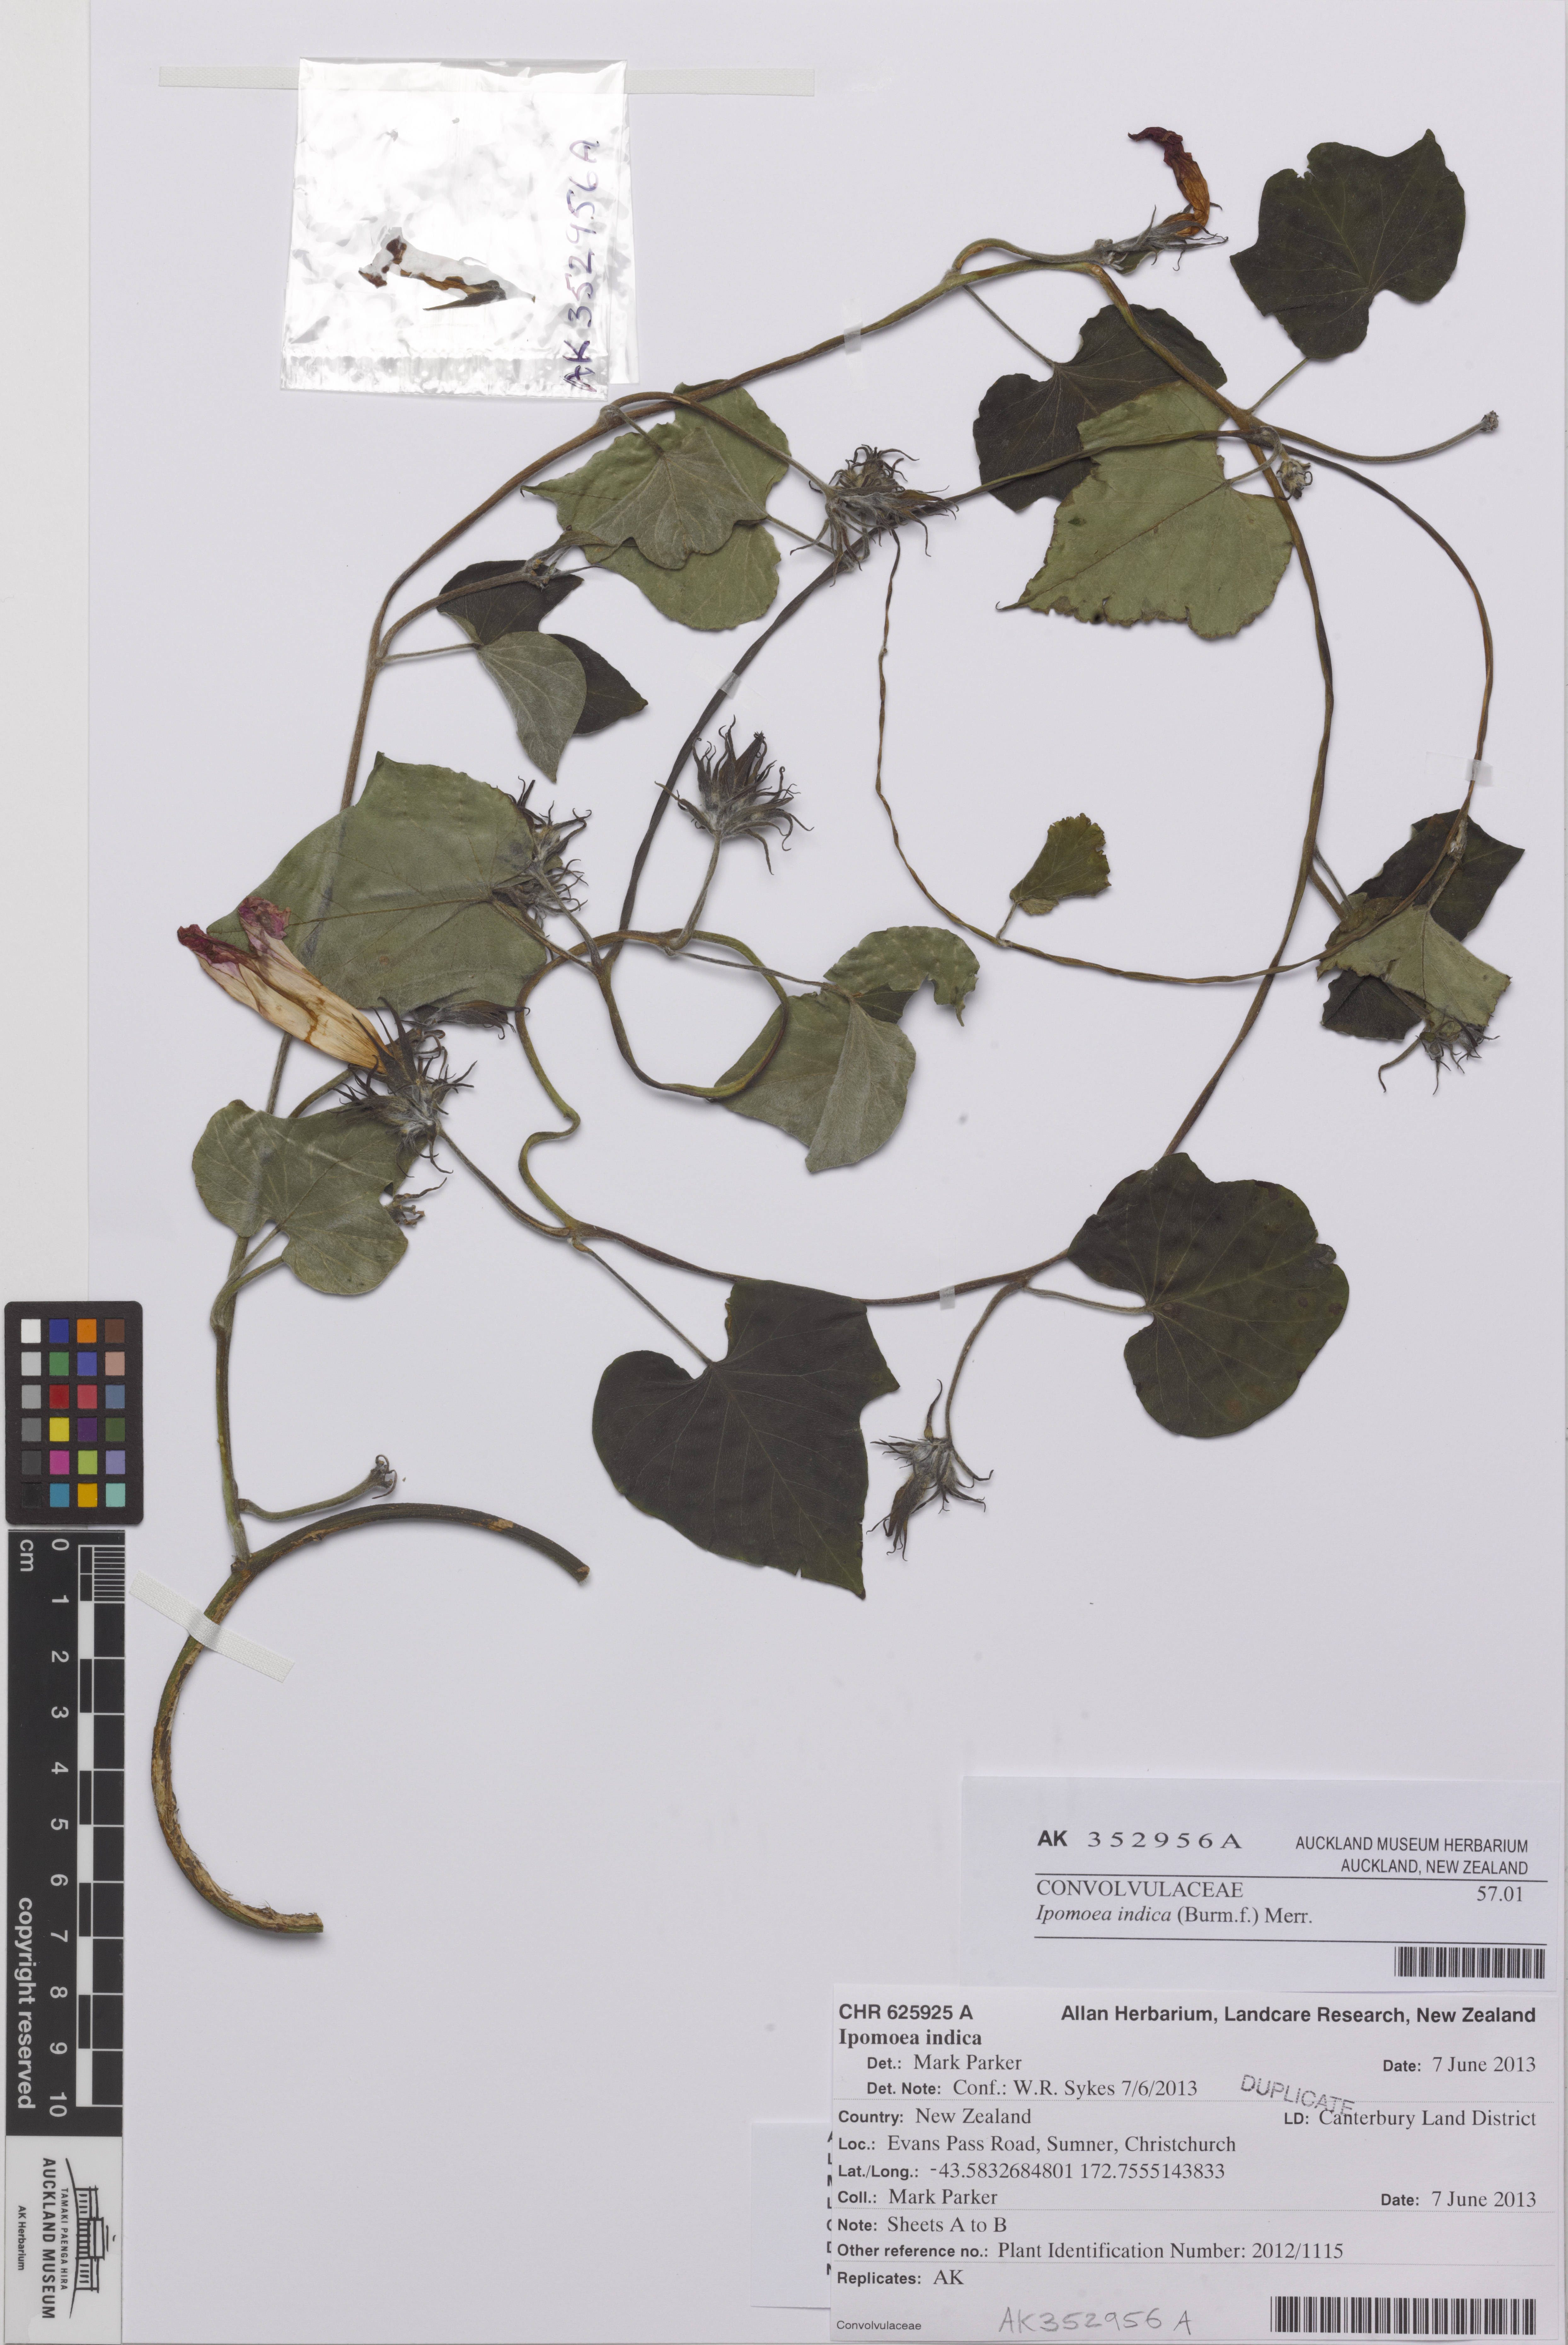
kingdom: Plantae
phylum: Tracheophyta
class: Magnoliopsida
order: Solanales
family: Convolvulaceae
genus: Ipomoea
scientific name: Ipomoea indica
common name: Blue dawnflower
